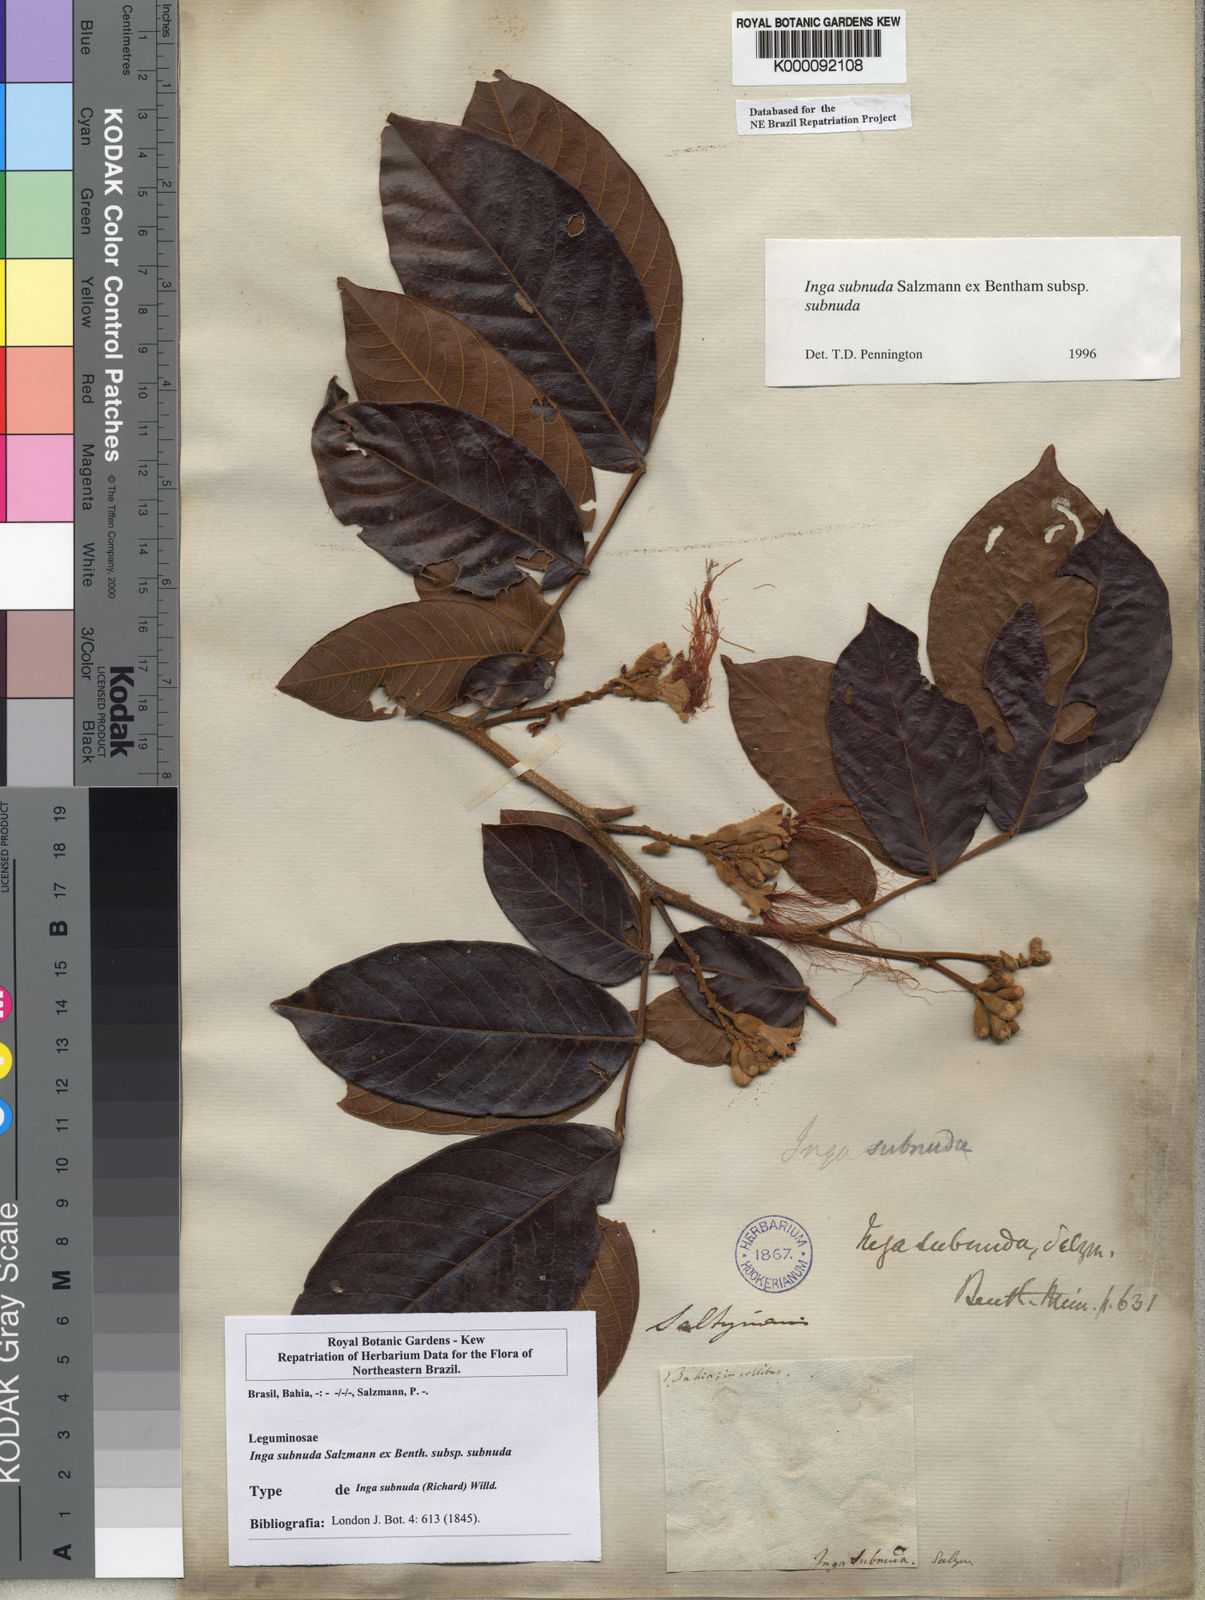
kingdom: Plantae
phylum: Tracheophyta
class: Magnoliopsida
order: Fabales
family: Fabaceae
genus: Inga
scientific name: Inga subnuda
